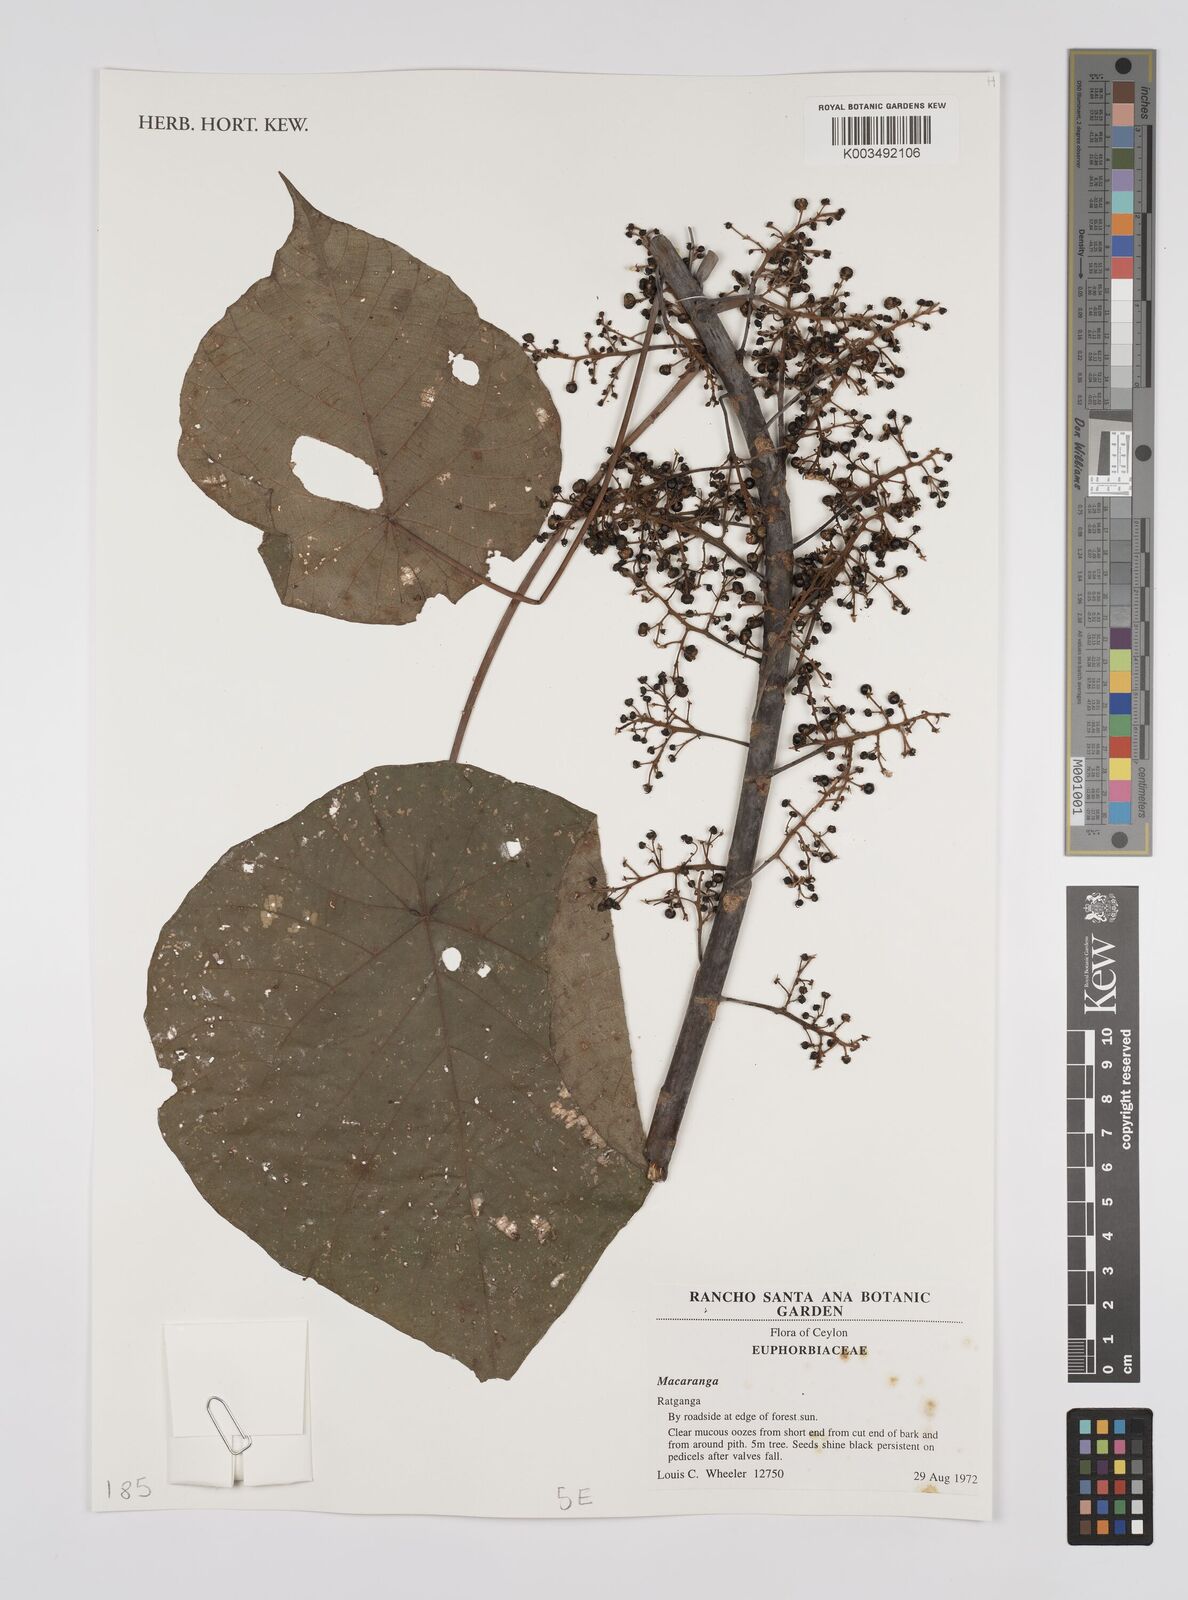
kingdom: Plantae
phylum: Tracheophyta
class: Magnoliopsida
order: Malpighiales
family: Euphorbiaceae
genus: Macaranga
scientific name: Macaranga
